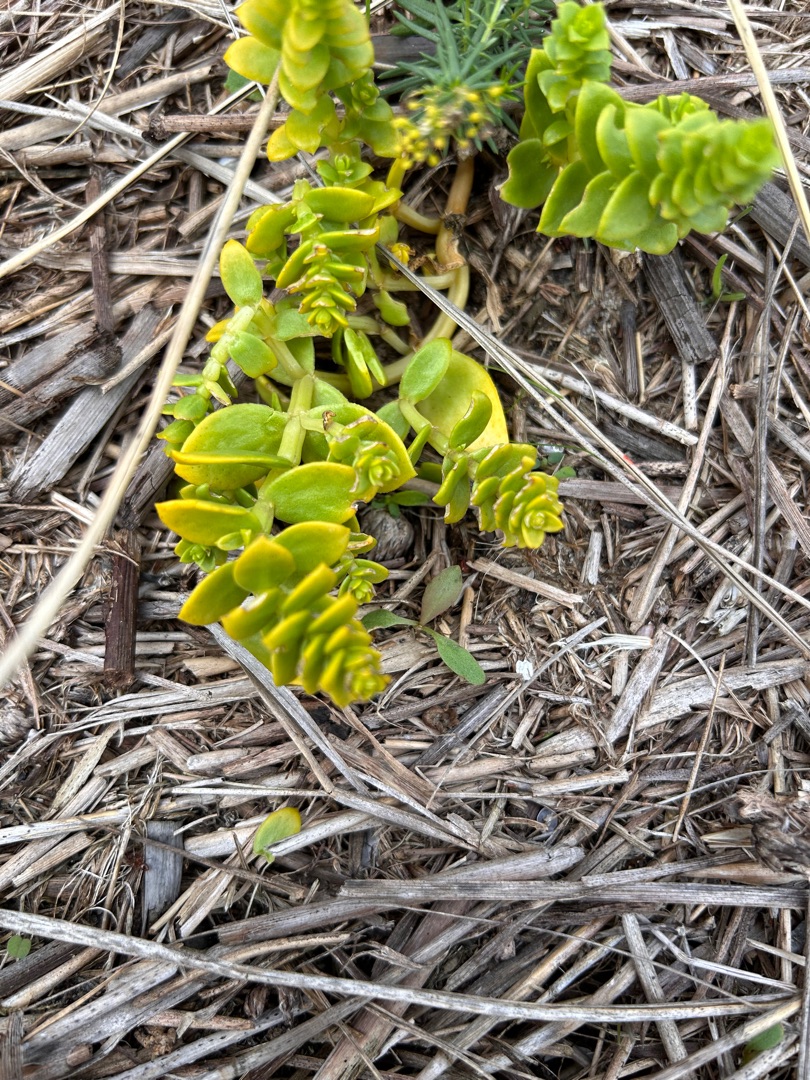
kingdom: Plantae
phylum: Tracheophyta
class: Magnoliopsida
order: Caryophyllales
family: Caryophyllaceae
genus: Honckenya
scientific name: Honckenya peploides
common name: Strandarve
